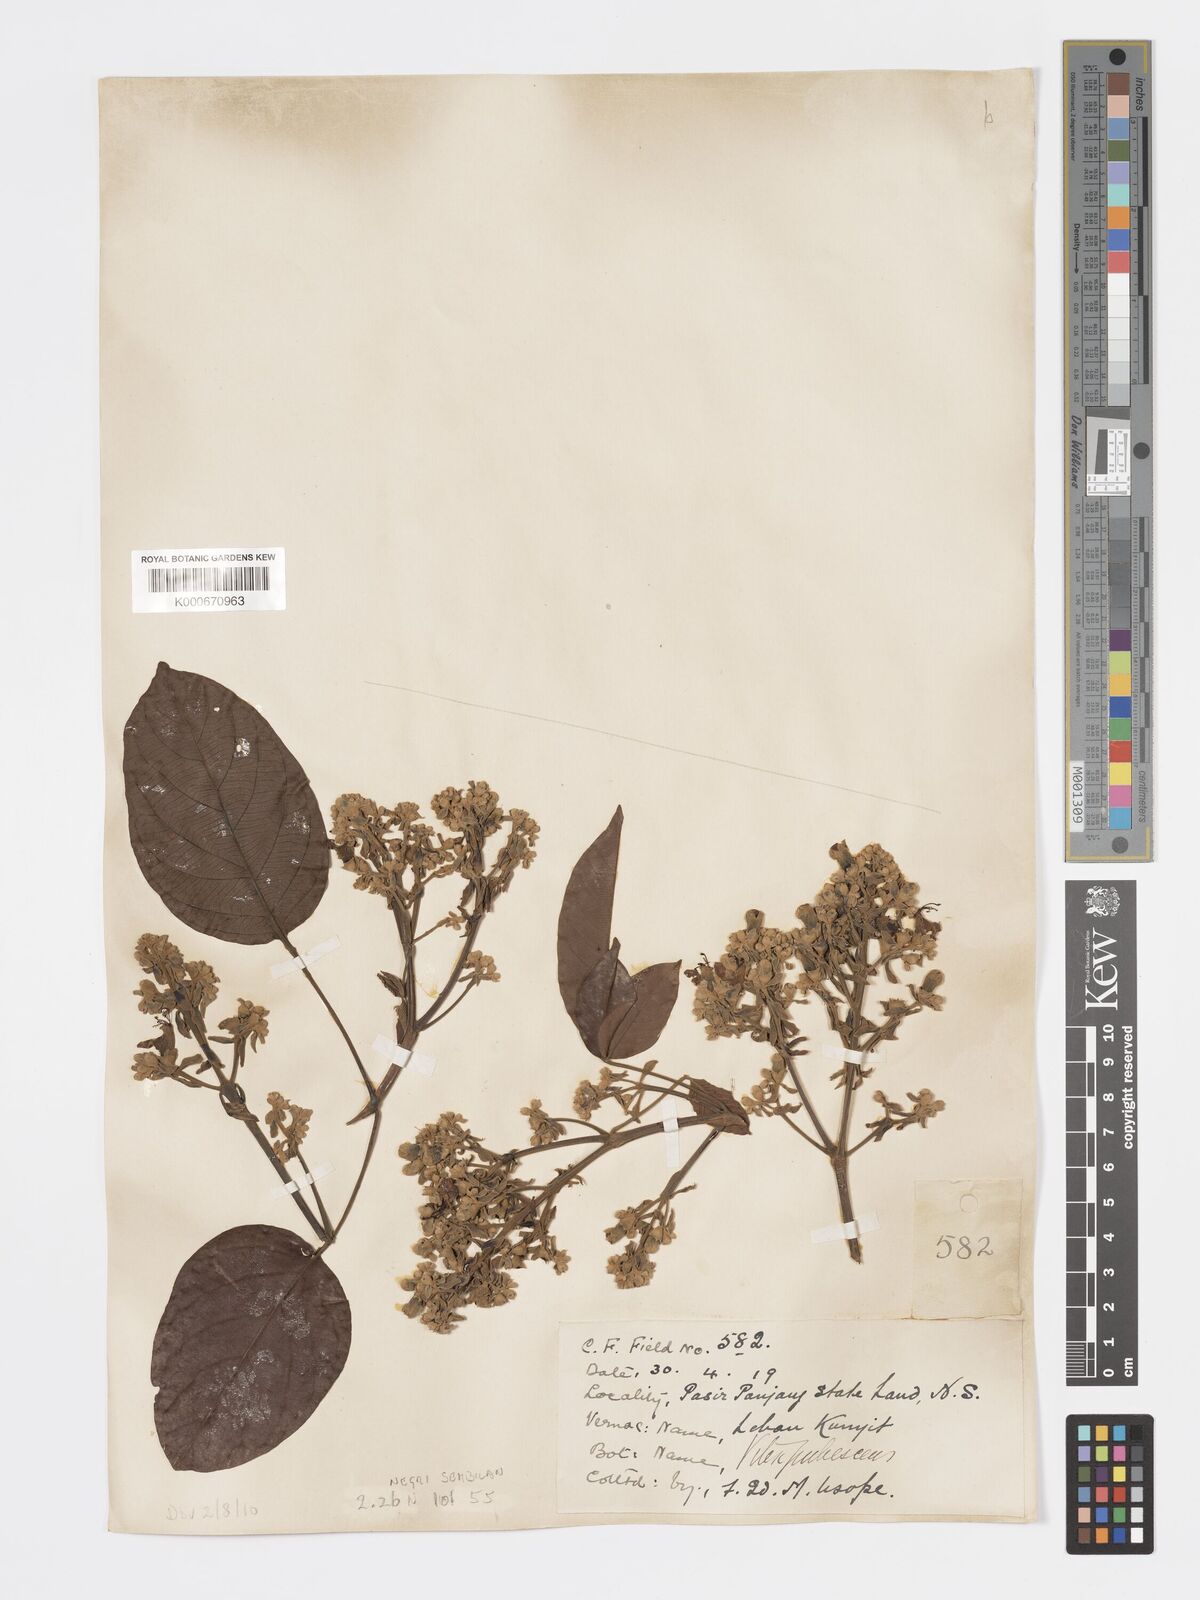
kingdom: Plantae
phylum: Tracheophyta
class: Magnoliopsida
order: Lamiales
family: Lamiaceae
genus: Vitex
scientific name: Vitex pinnata
